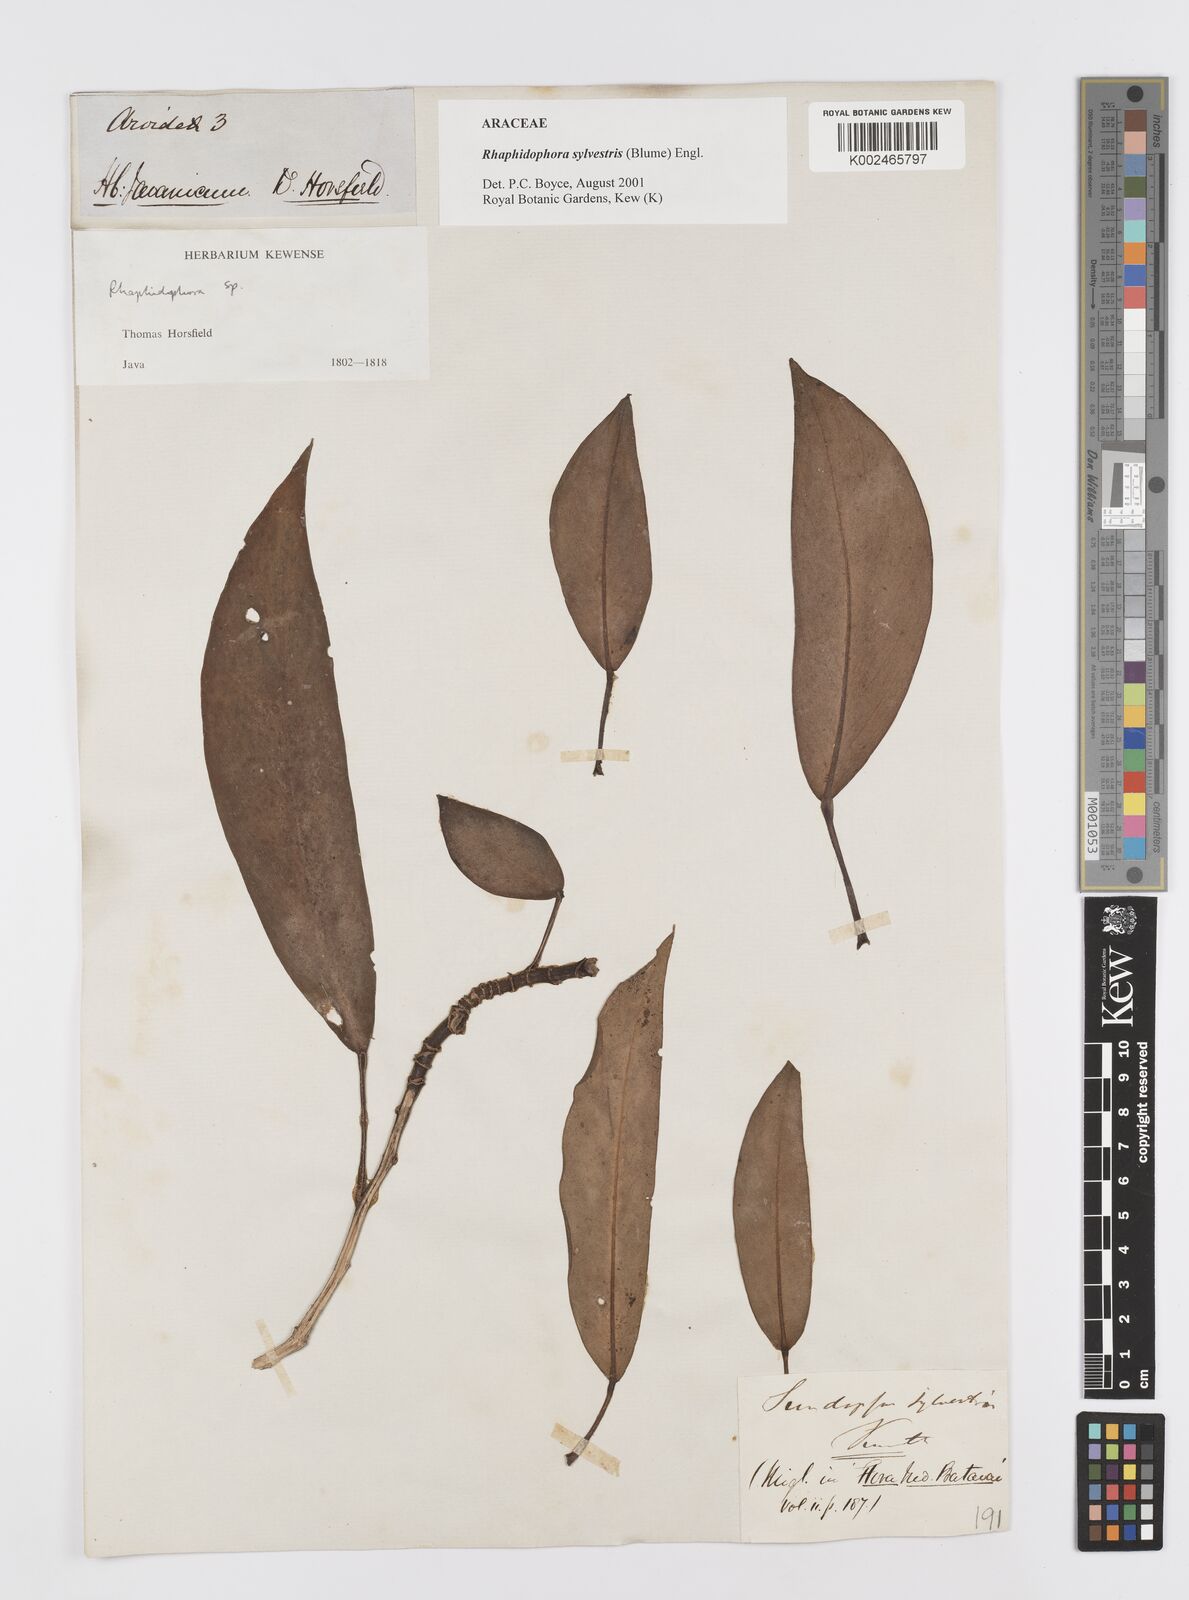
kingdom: Plantae
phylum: Tracheophyta
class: Liliopsida
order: Alismatales
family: Araceae
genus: Rhaphidophora
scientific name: Rhaphidophora sylvestris
